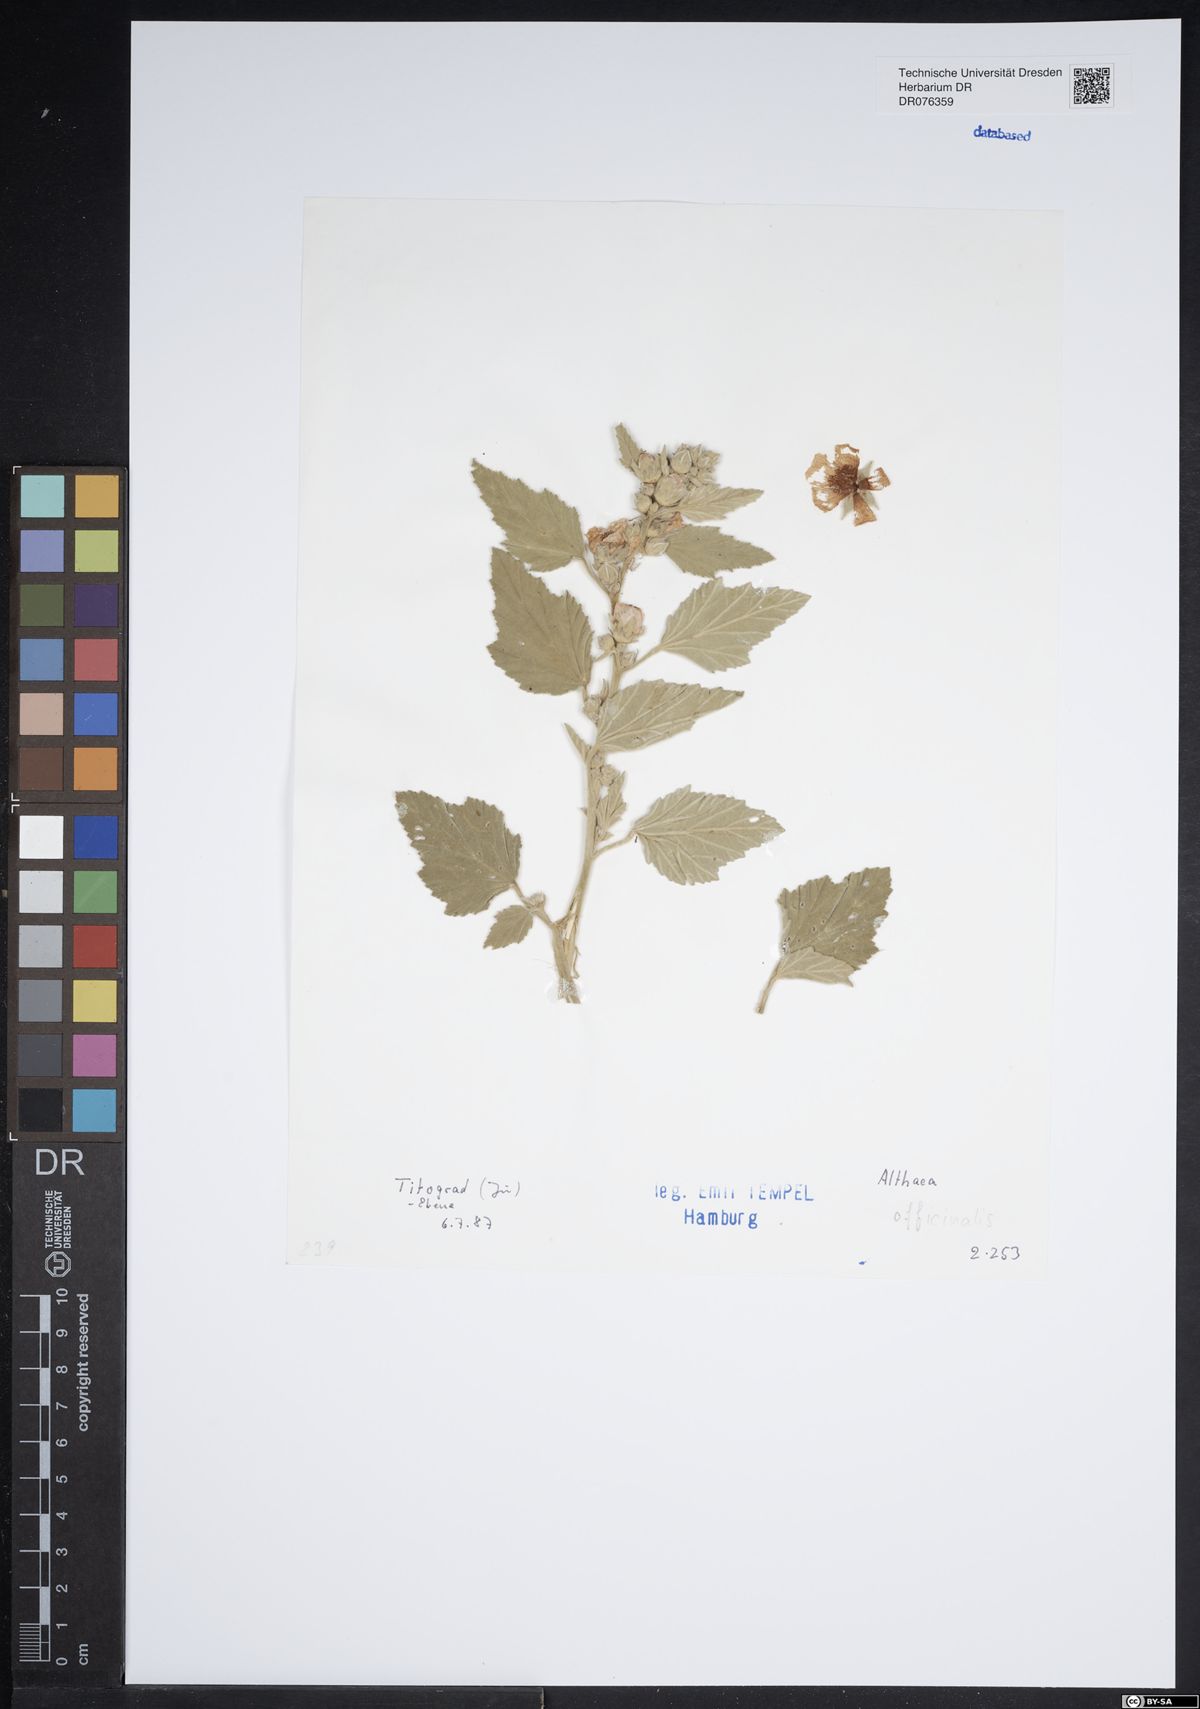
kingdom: Plantae
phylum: Tracheophyta
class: Magnoliopsida
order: Malvales
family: Malvaceae
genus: Althaea
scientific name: Althaea officinalis
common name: Marsh-mallow
